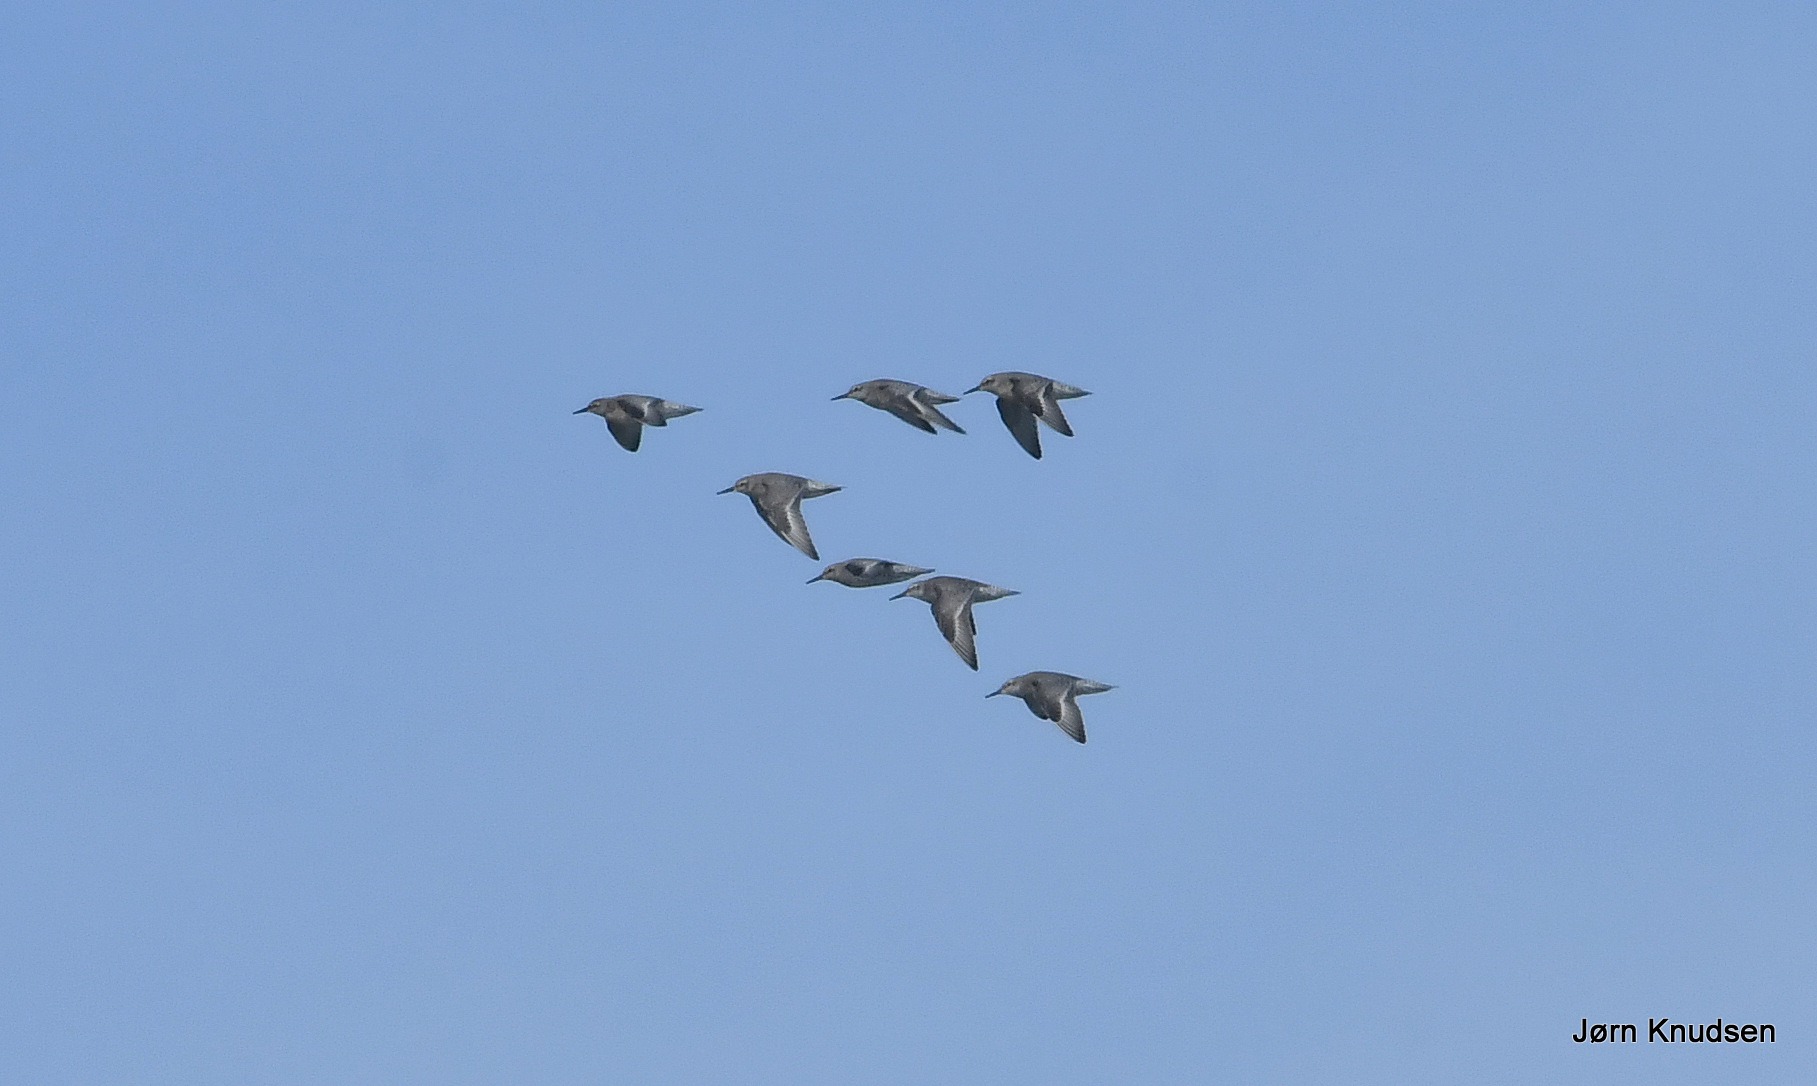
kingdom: Animalia
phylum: Chordata
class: Aves
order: Charadriiformes
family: Scolopacidae
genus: Calidris
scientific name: Calidris canutus
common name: Islandsk ryle
